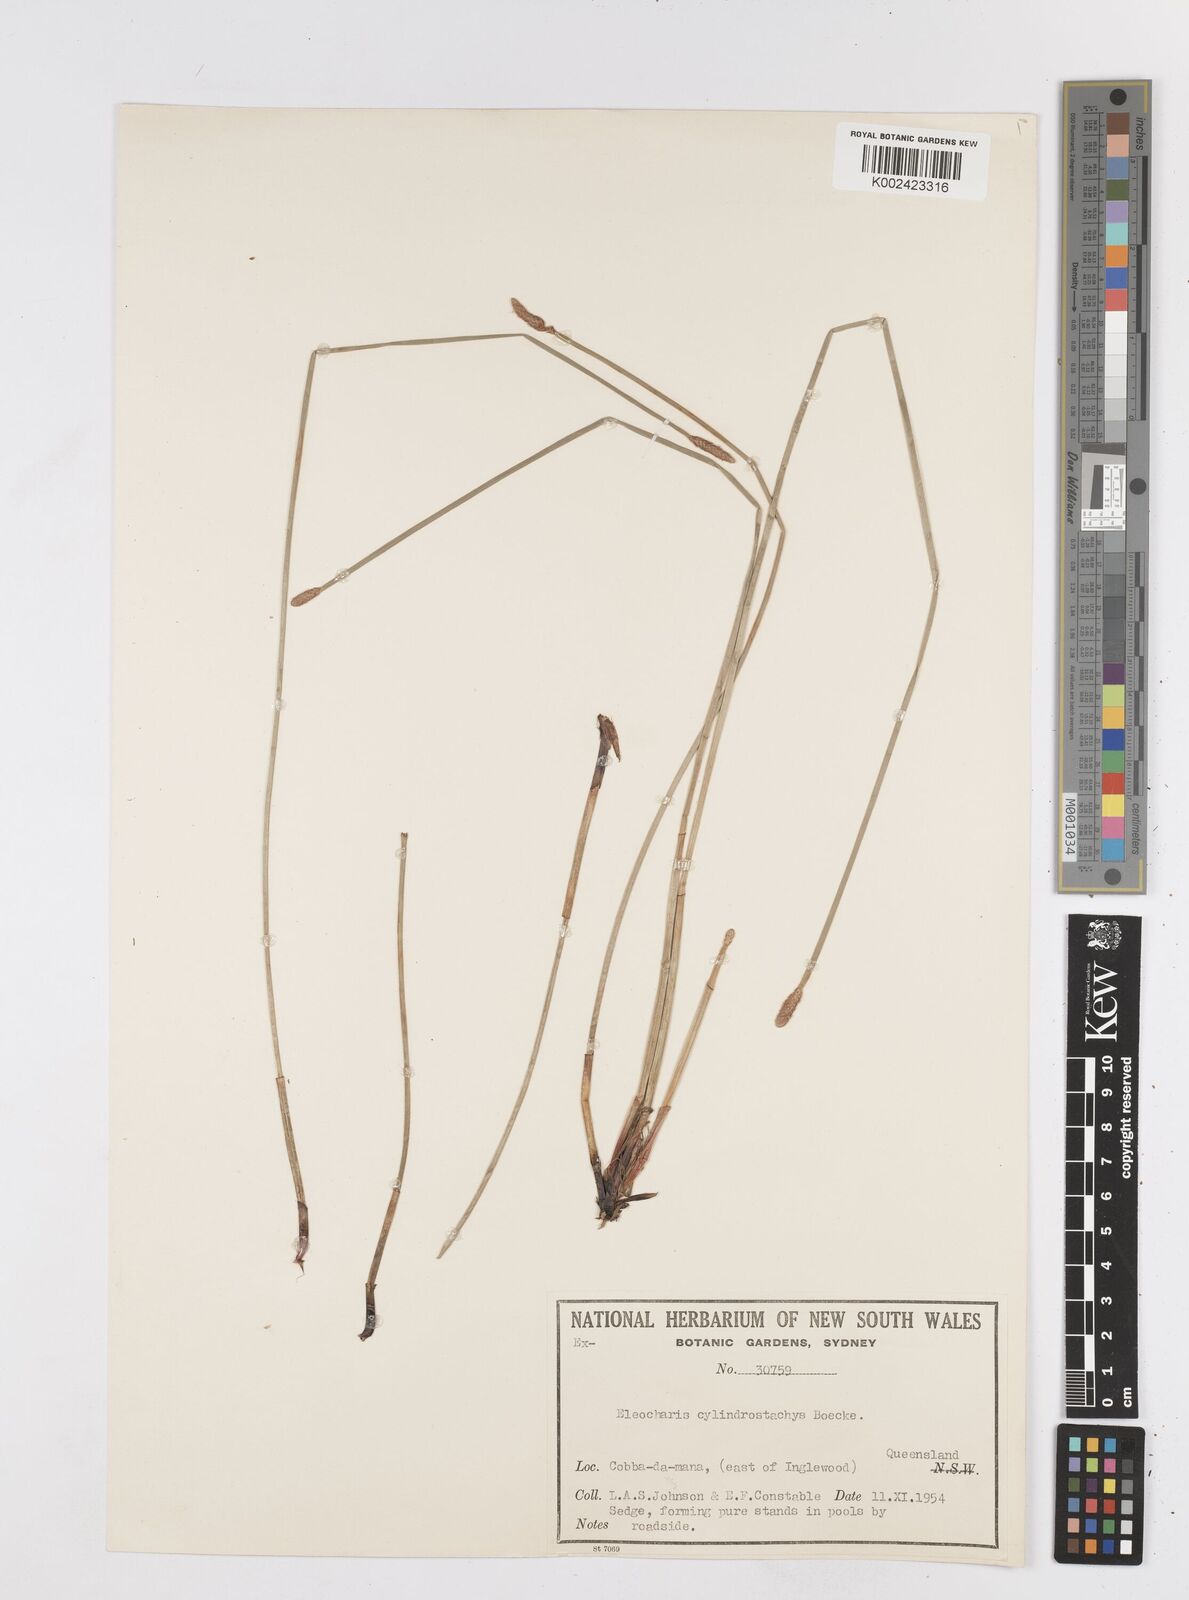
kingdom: Plantae
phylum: Tracheophyta
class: Liliopsida
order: Poales
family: Cyperaceae
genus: Eleocharis
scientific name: Eleocharis cylindrostachys
